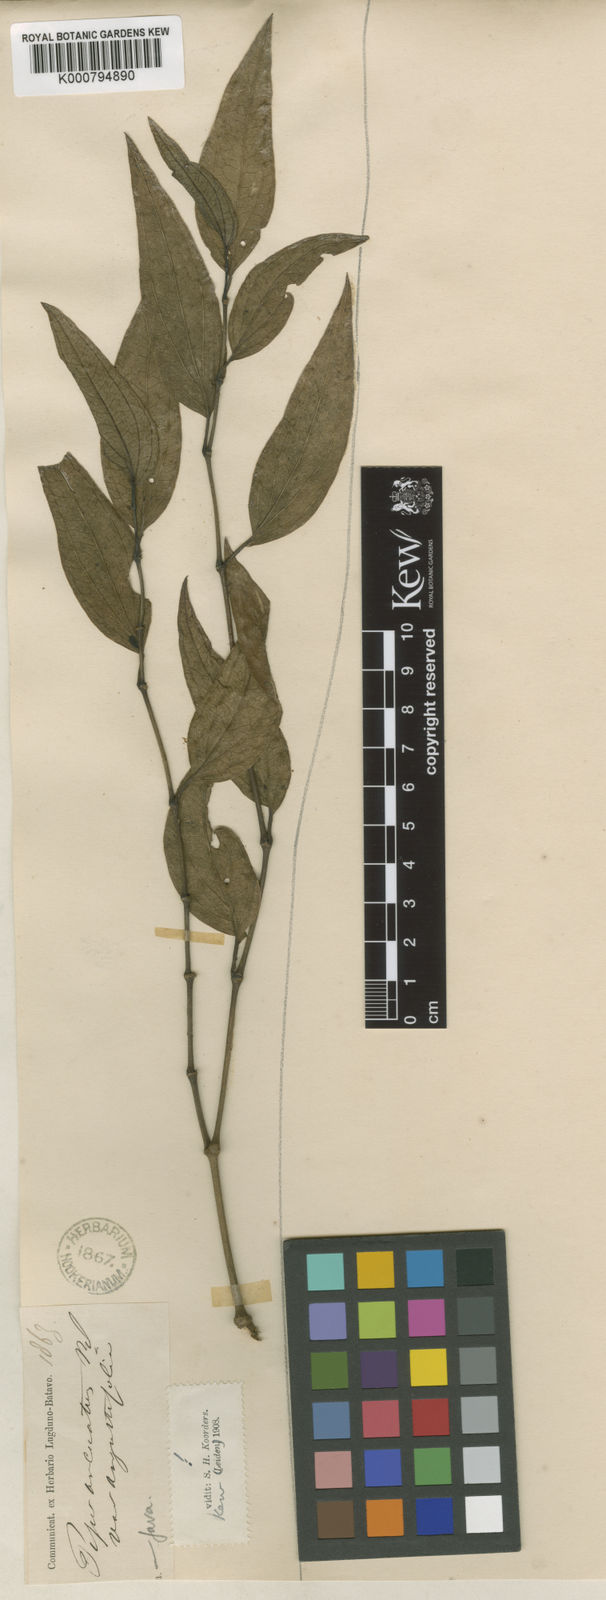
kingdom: Plantae
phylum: Tracheophyta
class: Magnoliopsida
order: Piperales
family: Piperaceae
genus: Piper
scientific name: Piper
